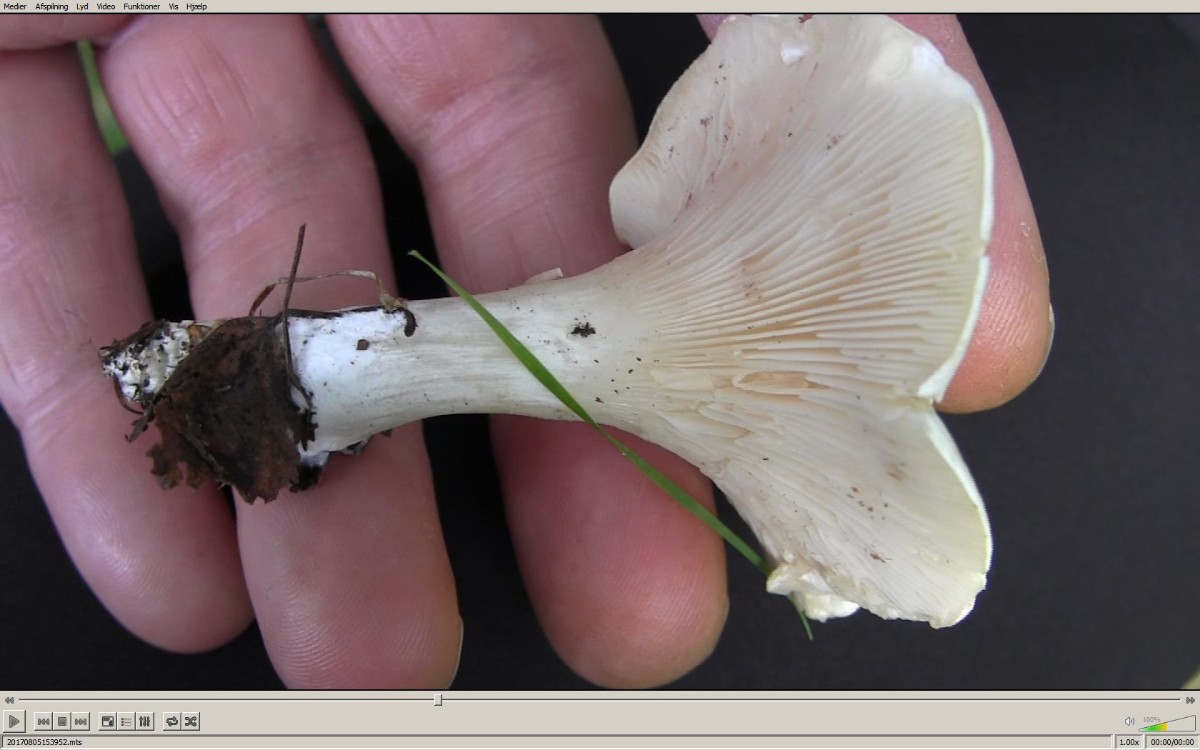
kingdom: Fungi
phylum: Basidiomycota
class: Agaricomycetes
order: Agaricales
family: Entolomataceae
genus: Clitopilus
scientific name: Clitopilus prunulus
